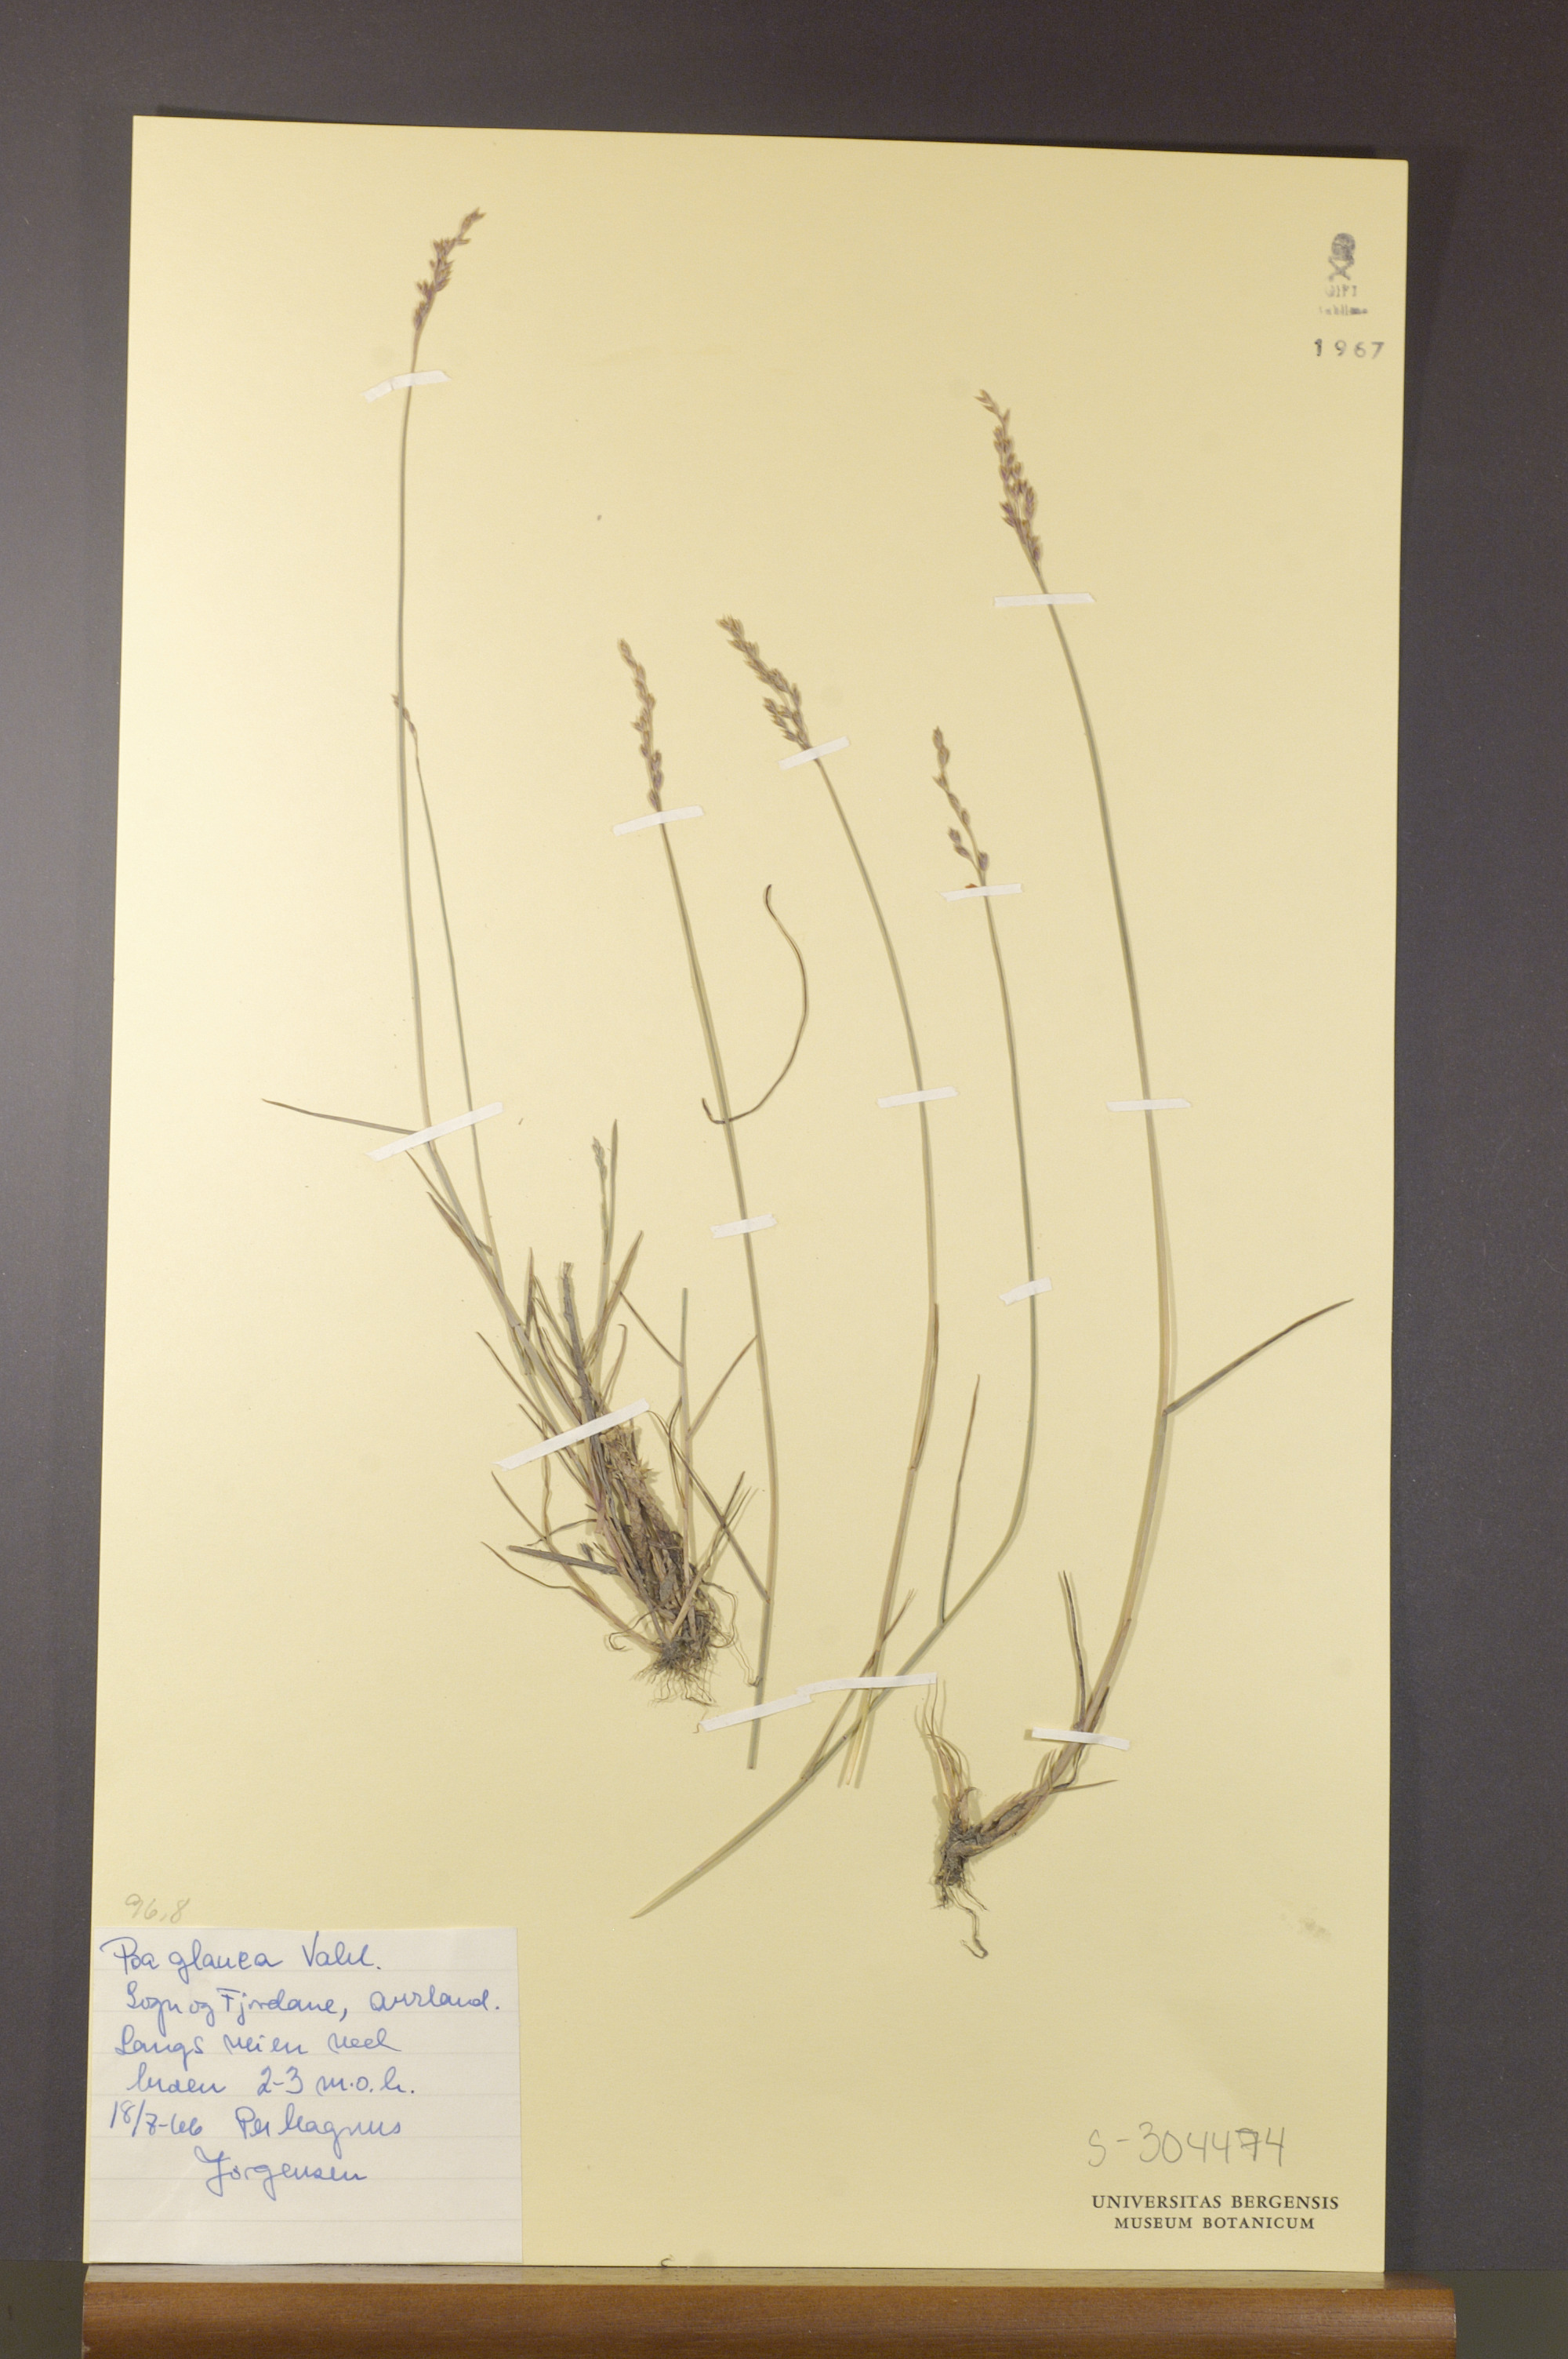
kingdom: Plantae
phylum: Tracheophyta
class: Liliopsida
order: Poales
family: Poaceae
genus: Poa
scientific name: Poa glauca
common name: Glaucous bluegrass
